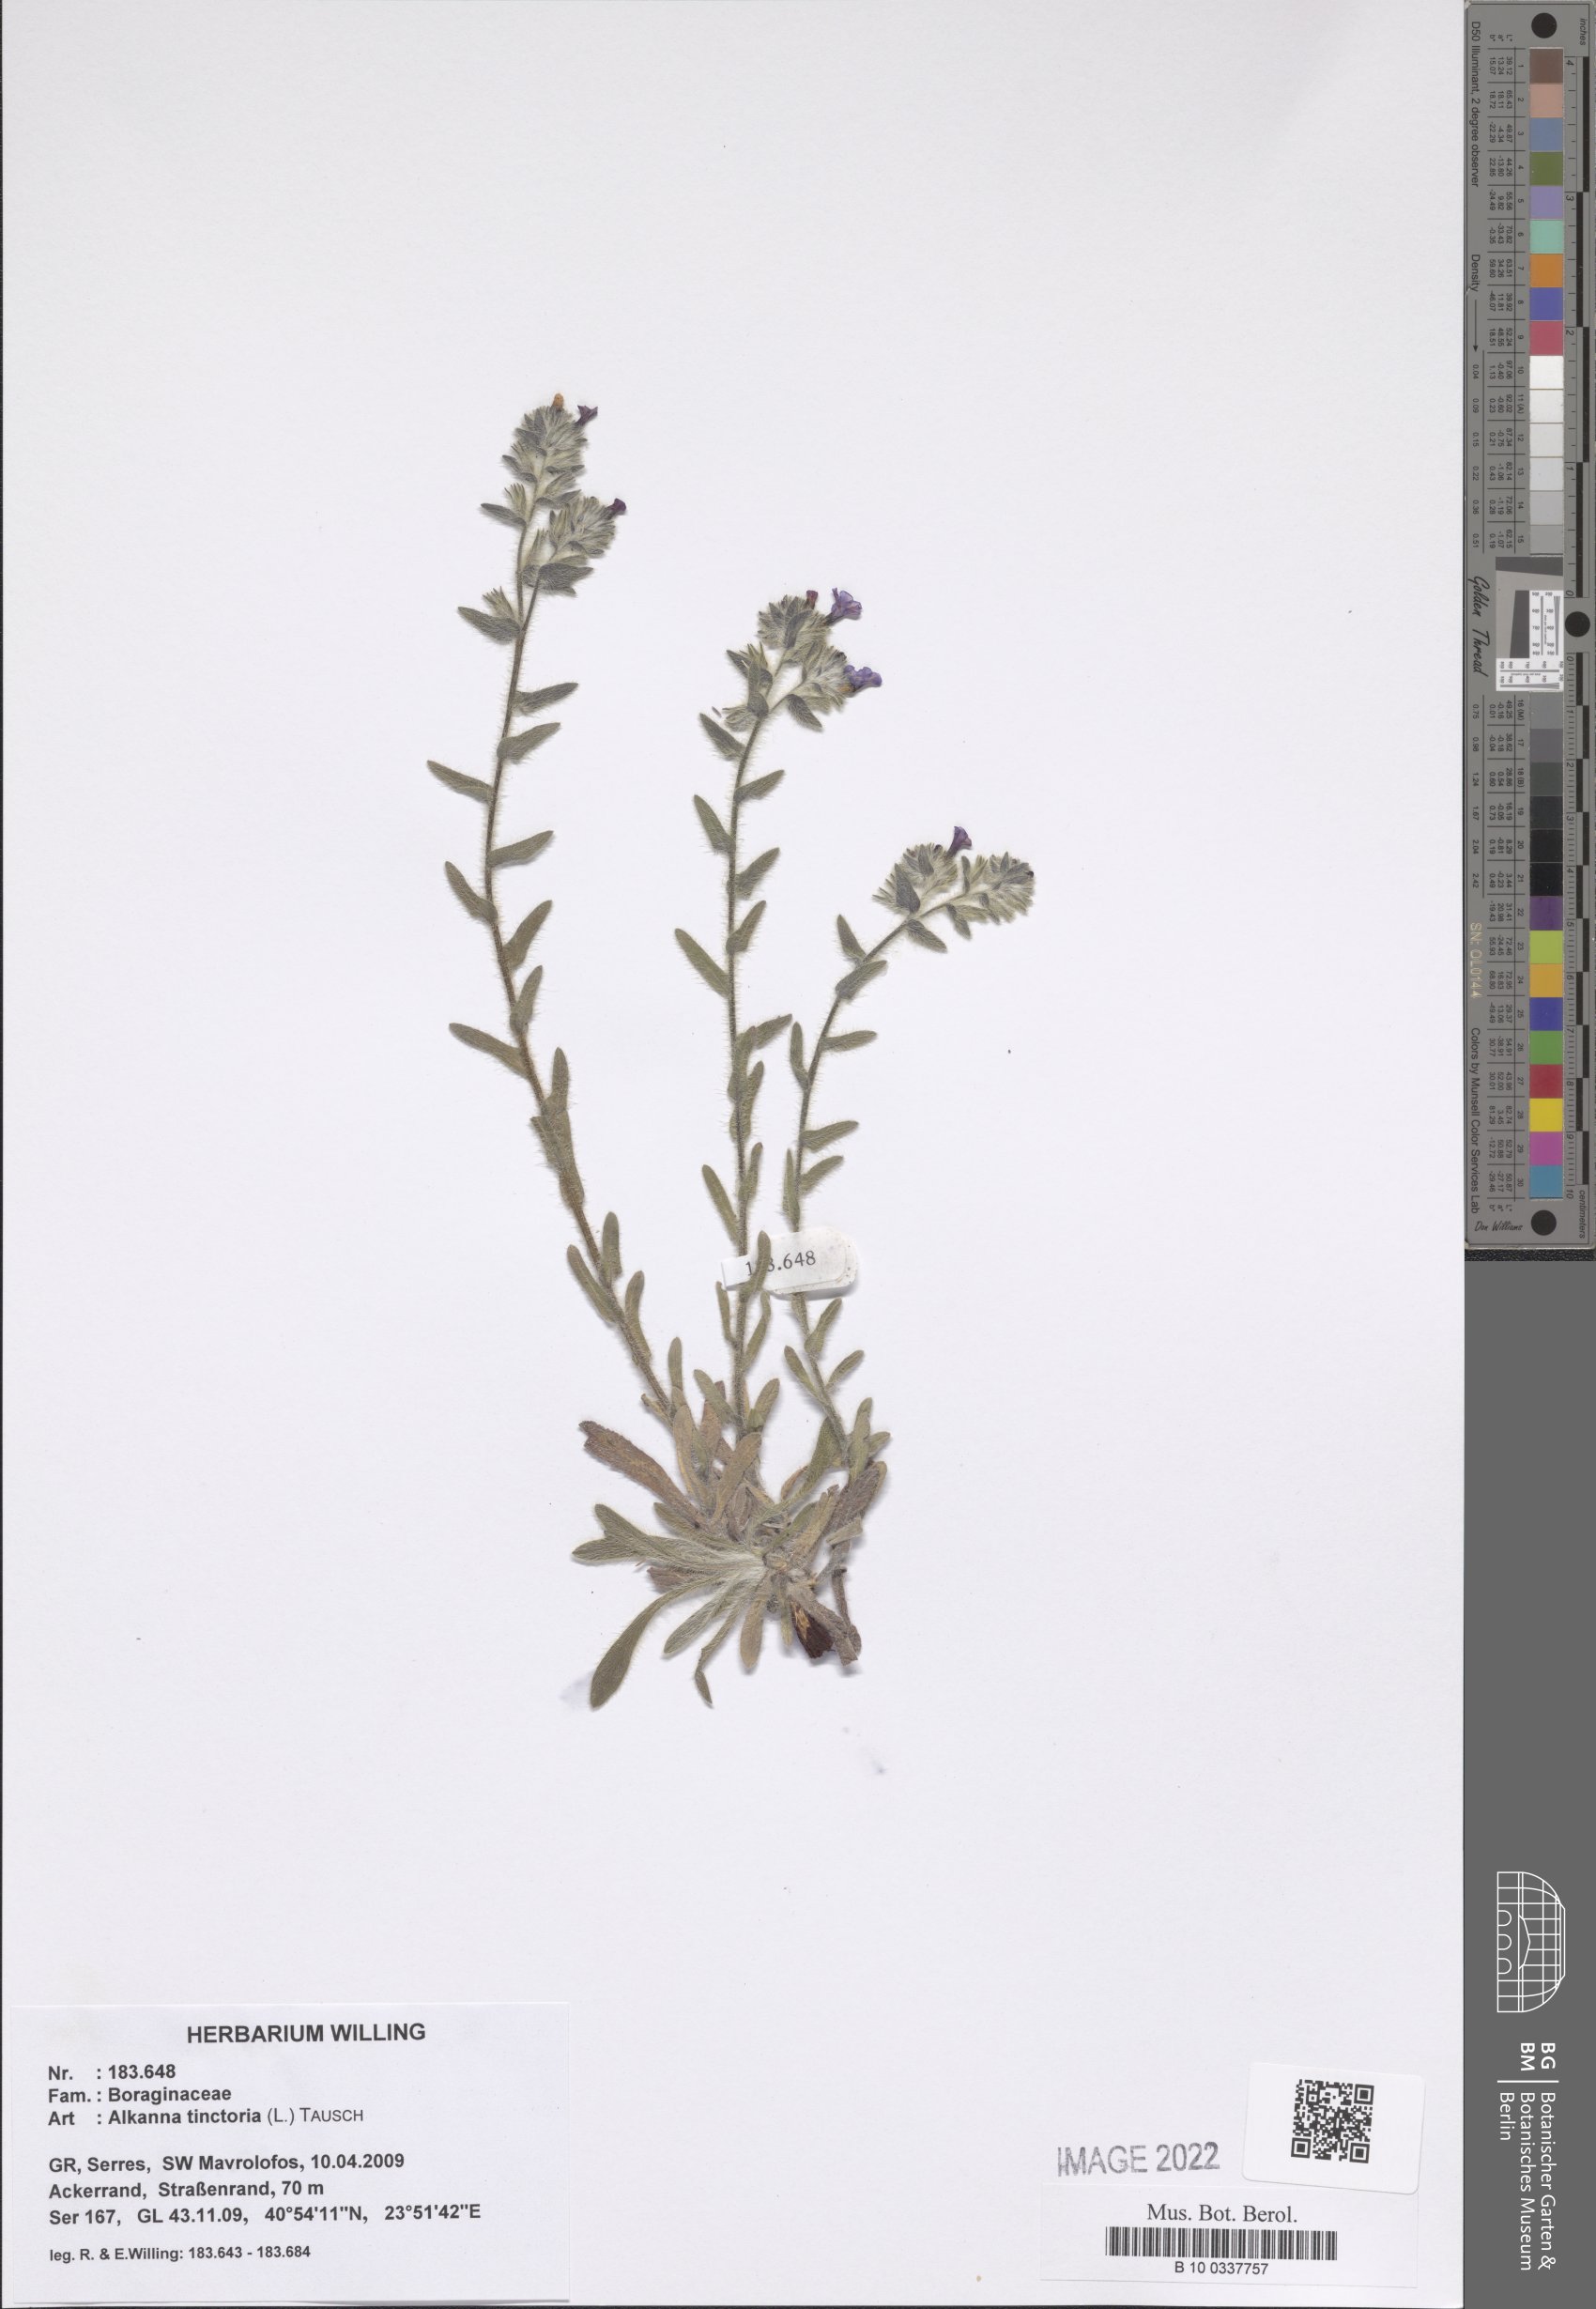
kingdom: Plantae
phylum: Tracheophyta
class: Magnoliopsida
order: Boraginales
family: Boraginaceae
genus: Alkanna
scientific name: Alkanna tinctoria
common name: Dyer's-alkanet
